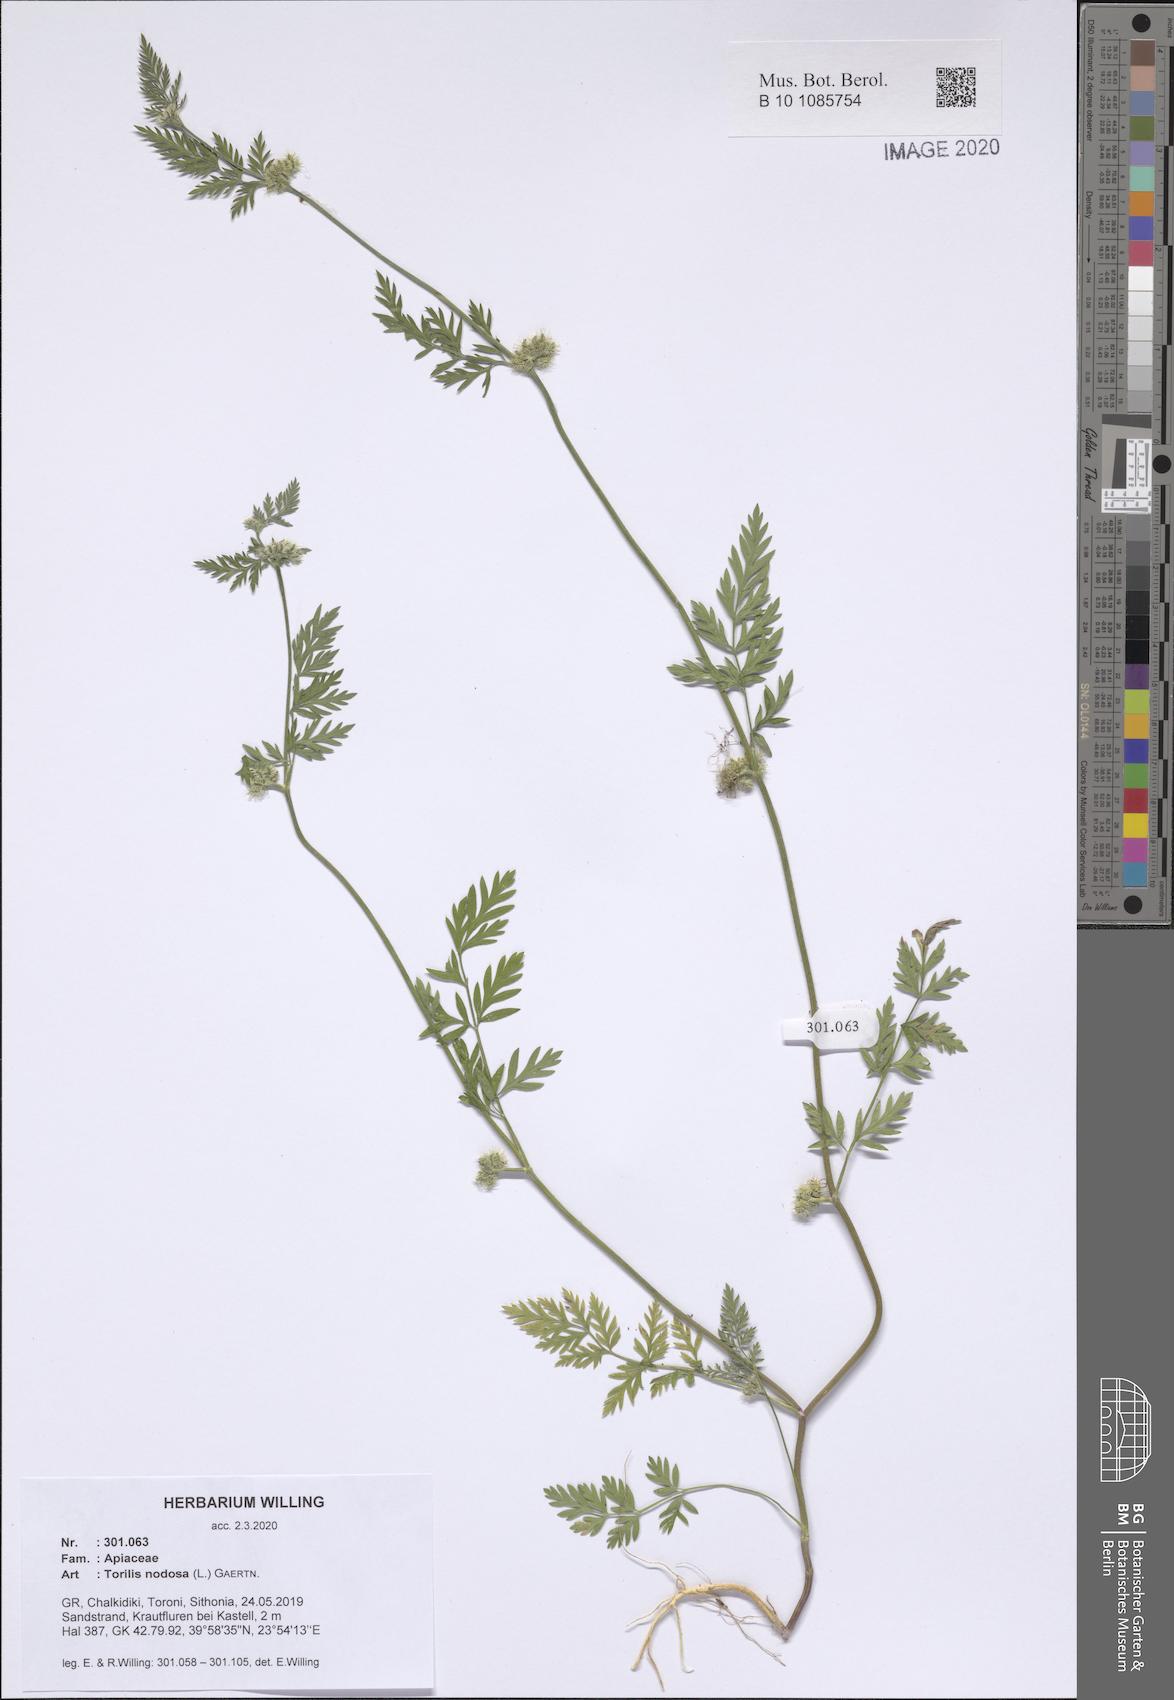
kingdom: Plantae
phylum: Tracheophyta
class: Magnoliopsida
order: Apiales
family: Apiaceae
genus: Torilis
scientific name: Torilis nodosa
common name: Knotted hedge-parsley
